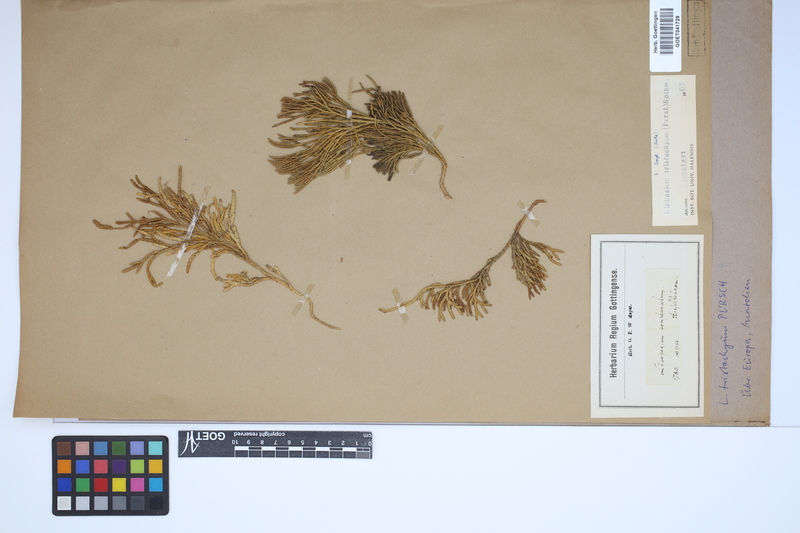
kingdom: Plantae
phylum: Tracheophyta
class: Lycopodiopsida
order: Lycopodiales
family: Lycopodiaceae
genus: Diphasiastrum
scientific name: Diphasiastrum tristachyum
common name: Blue ground-cedar
